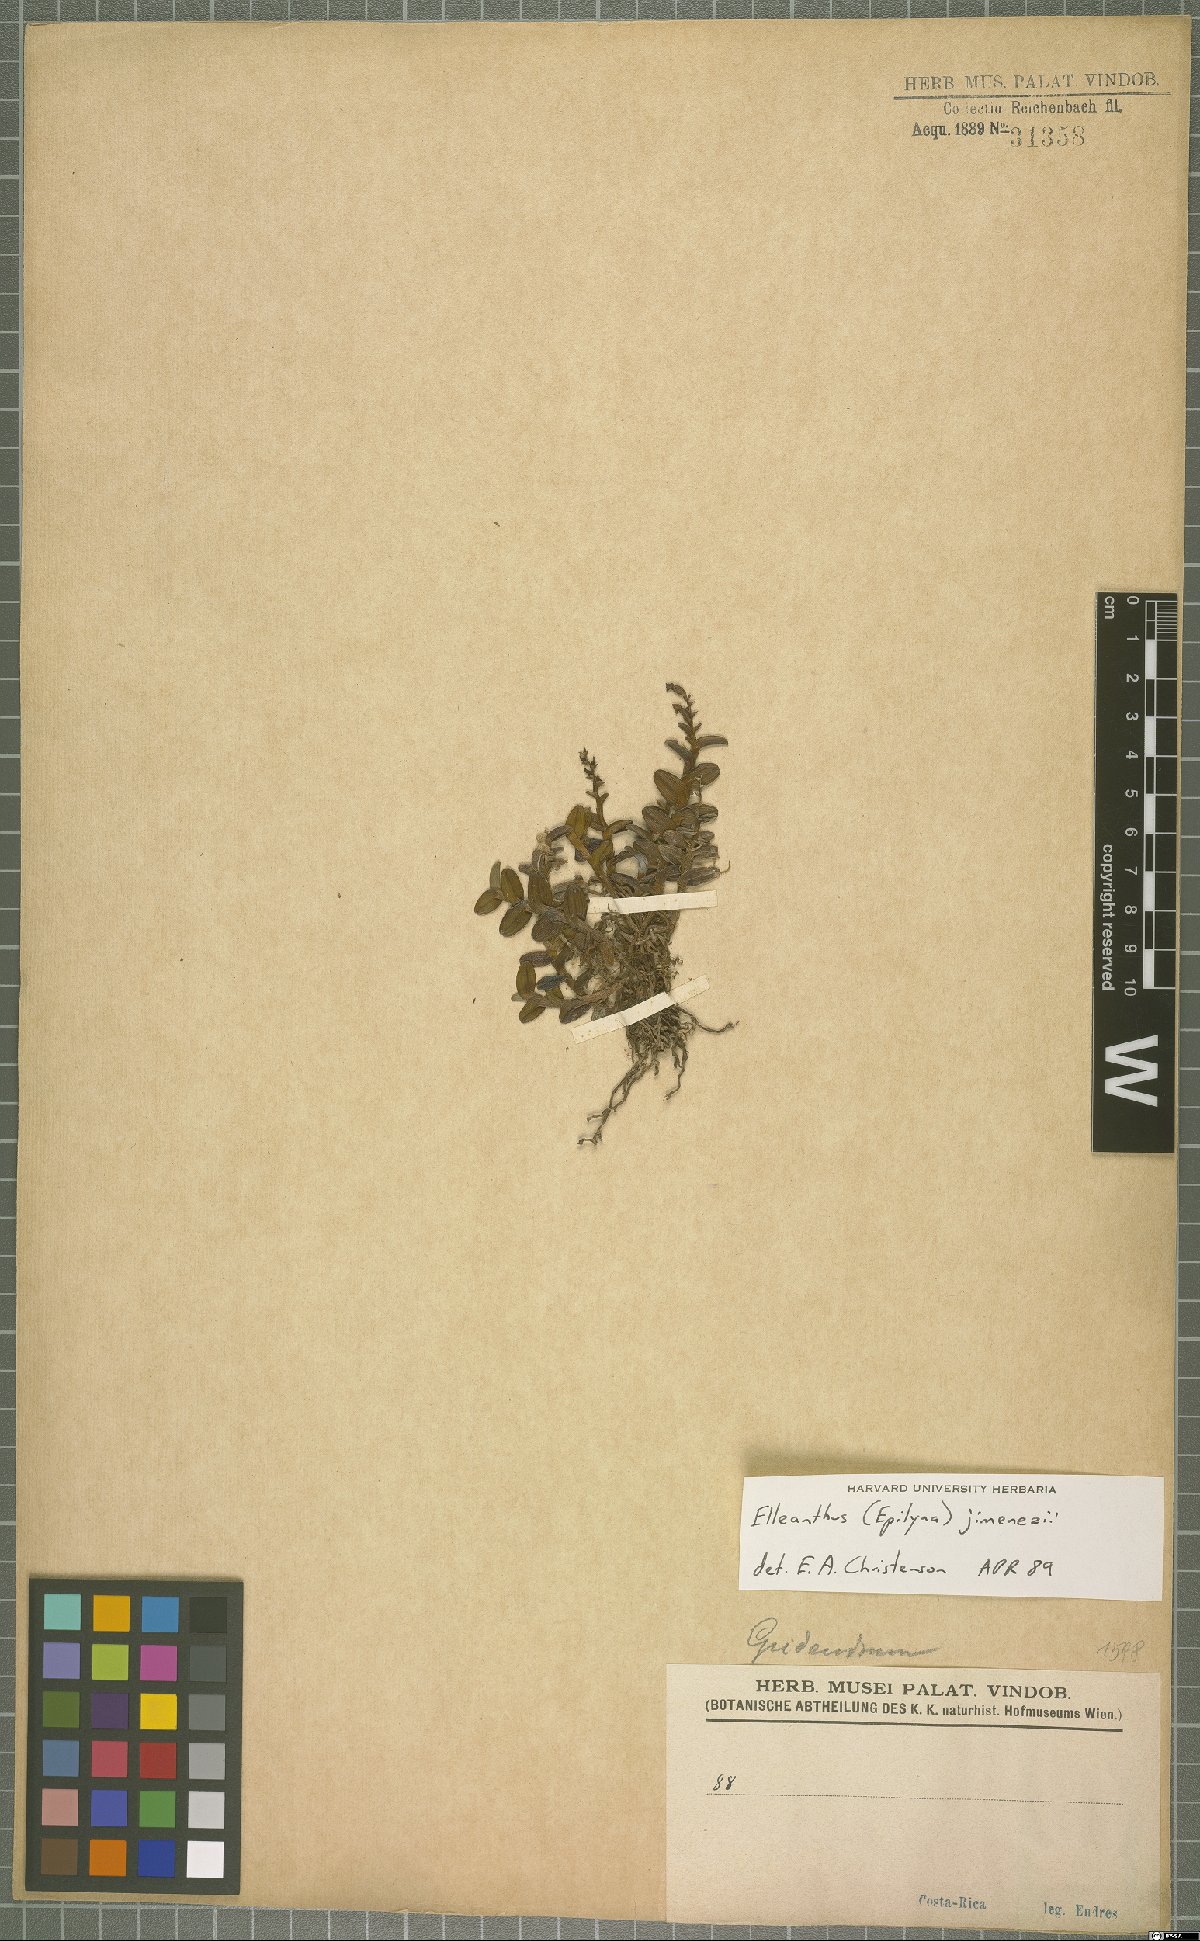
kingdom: Plantae
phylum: Tracheophyta
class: Liliopsida
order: Asparagales
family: Orchidaceae
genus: Elleanthus
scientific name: Elleanthus jimenezii
